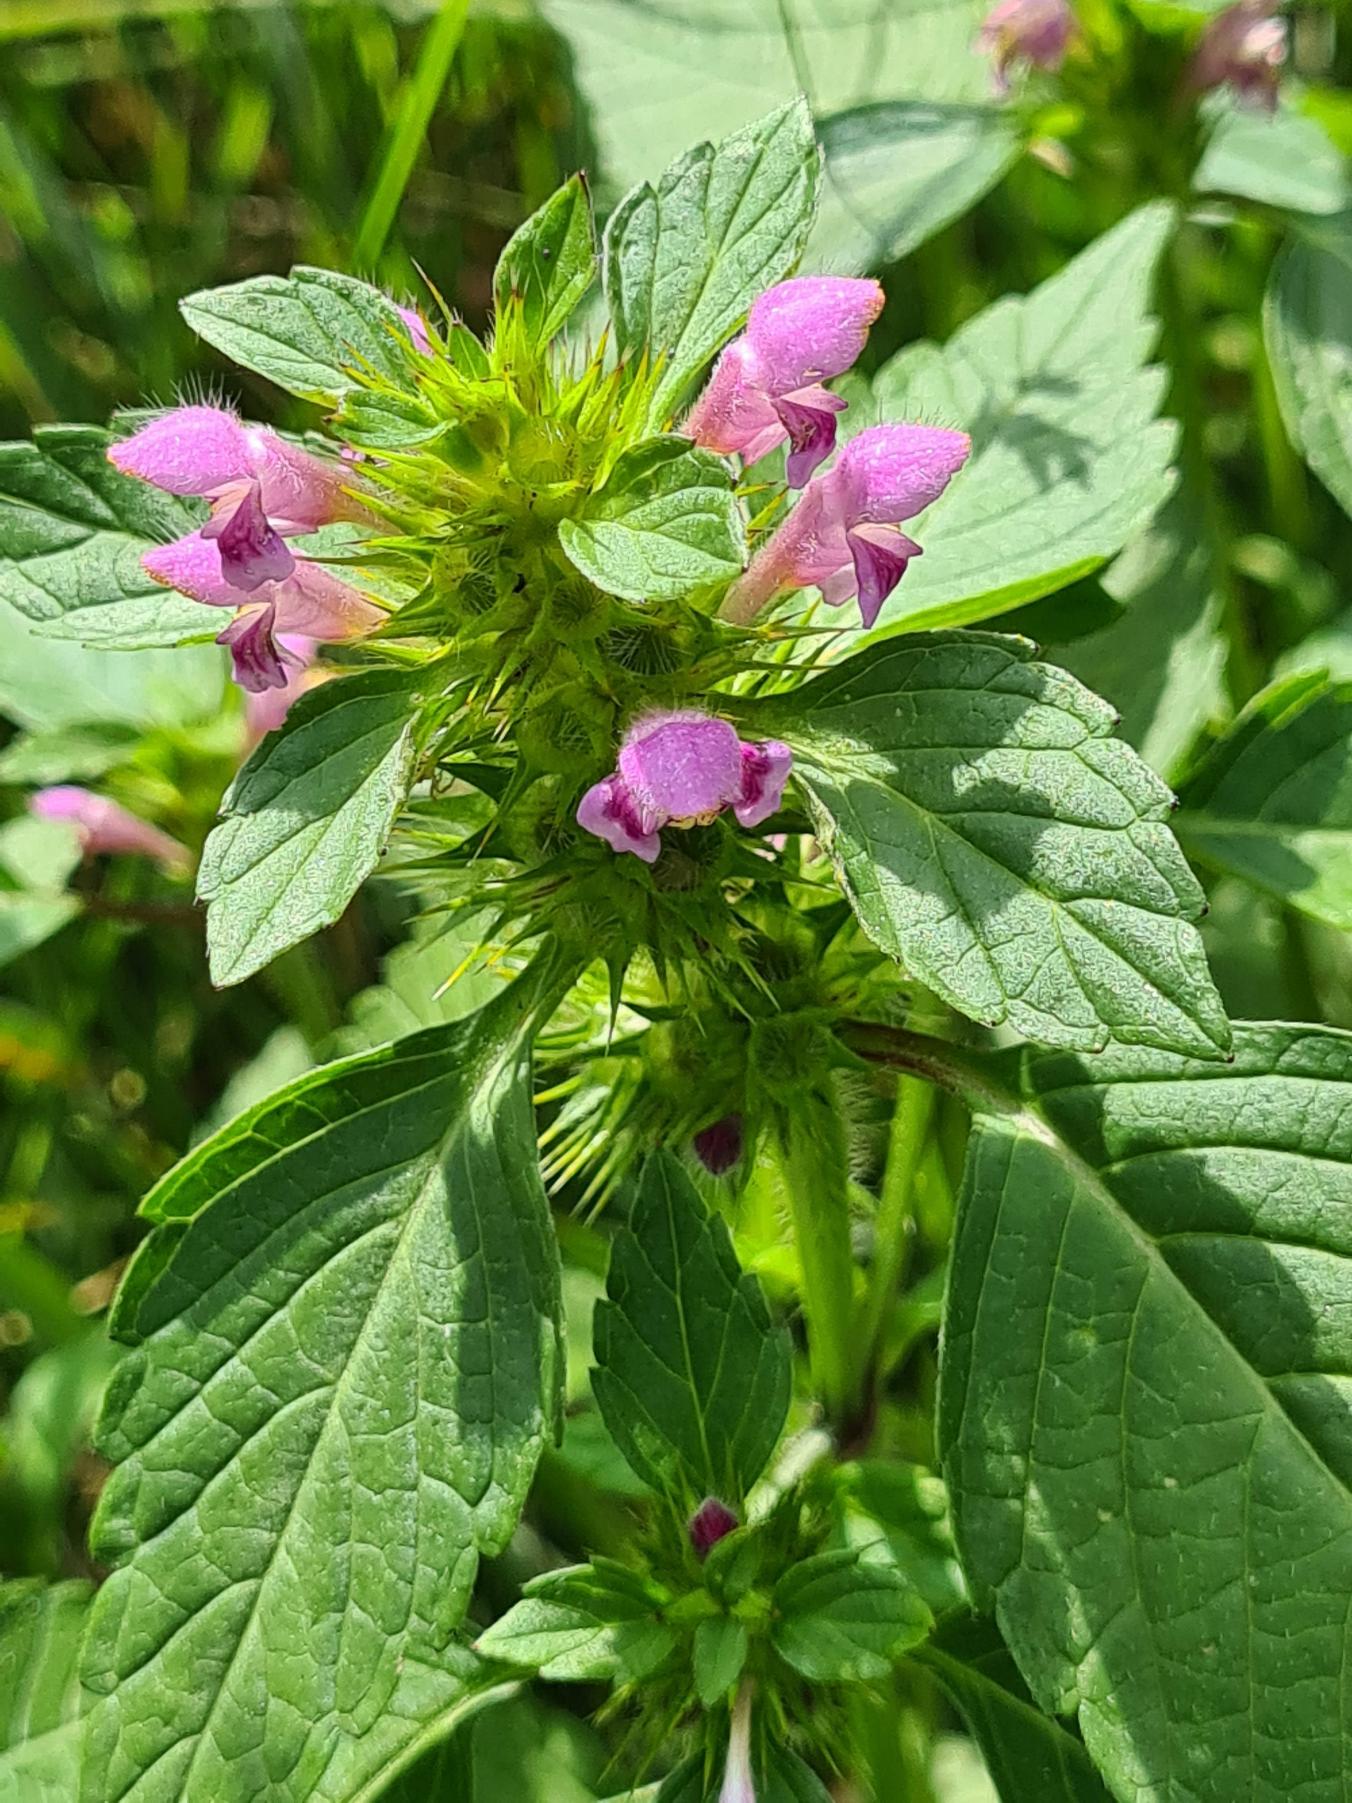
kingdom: Plantae
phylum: Tracheophyta
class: Magnoliopsida
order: Lamiales
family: Lamiaceae
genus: Galeopsis
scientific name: Galeopsis tetrahit
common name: Almindelig hanekro
